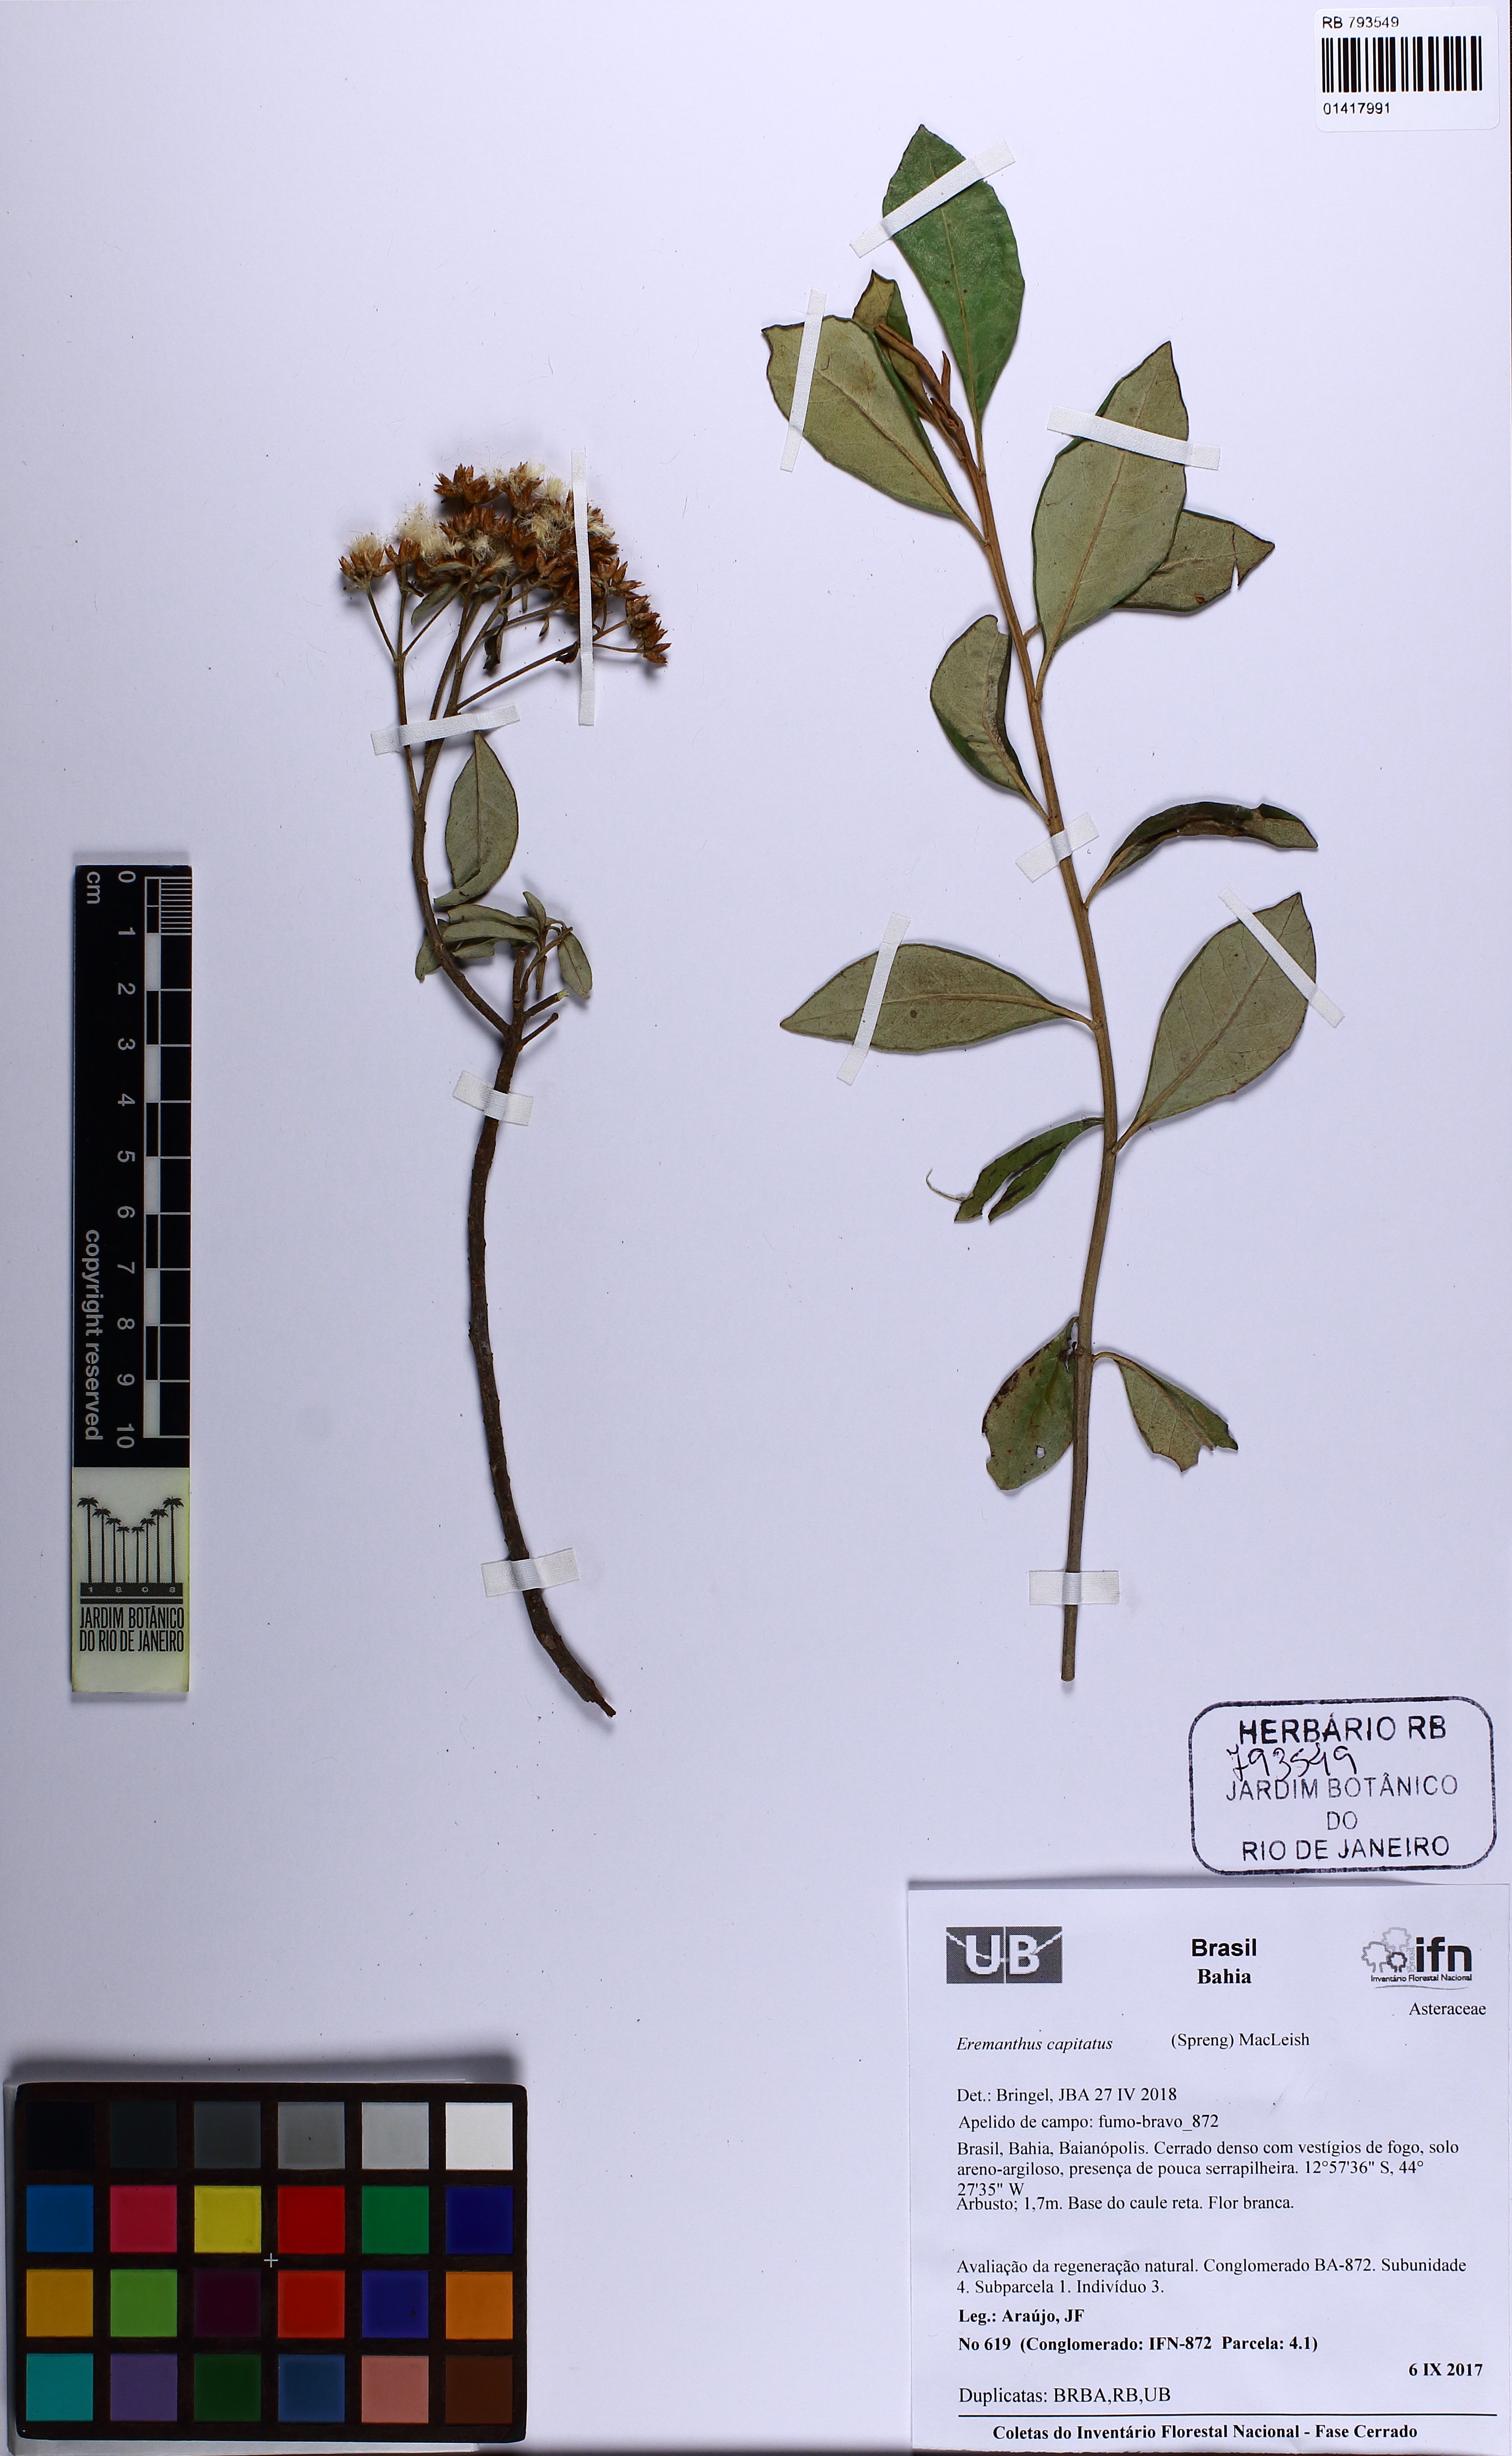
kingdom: Plantae
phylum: Tracheophyta
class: Magnoliopsida
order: Asterales
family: Asteraceae
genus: Eremanthus
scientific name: Eremanthus capitatus
